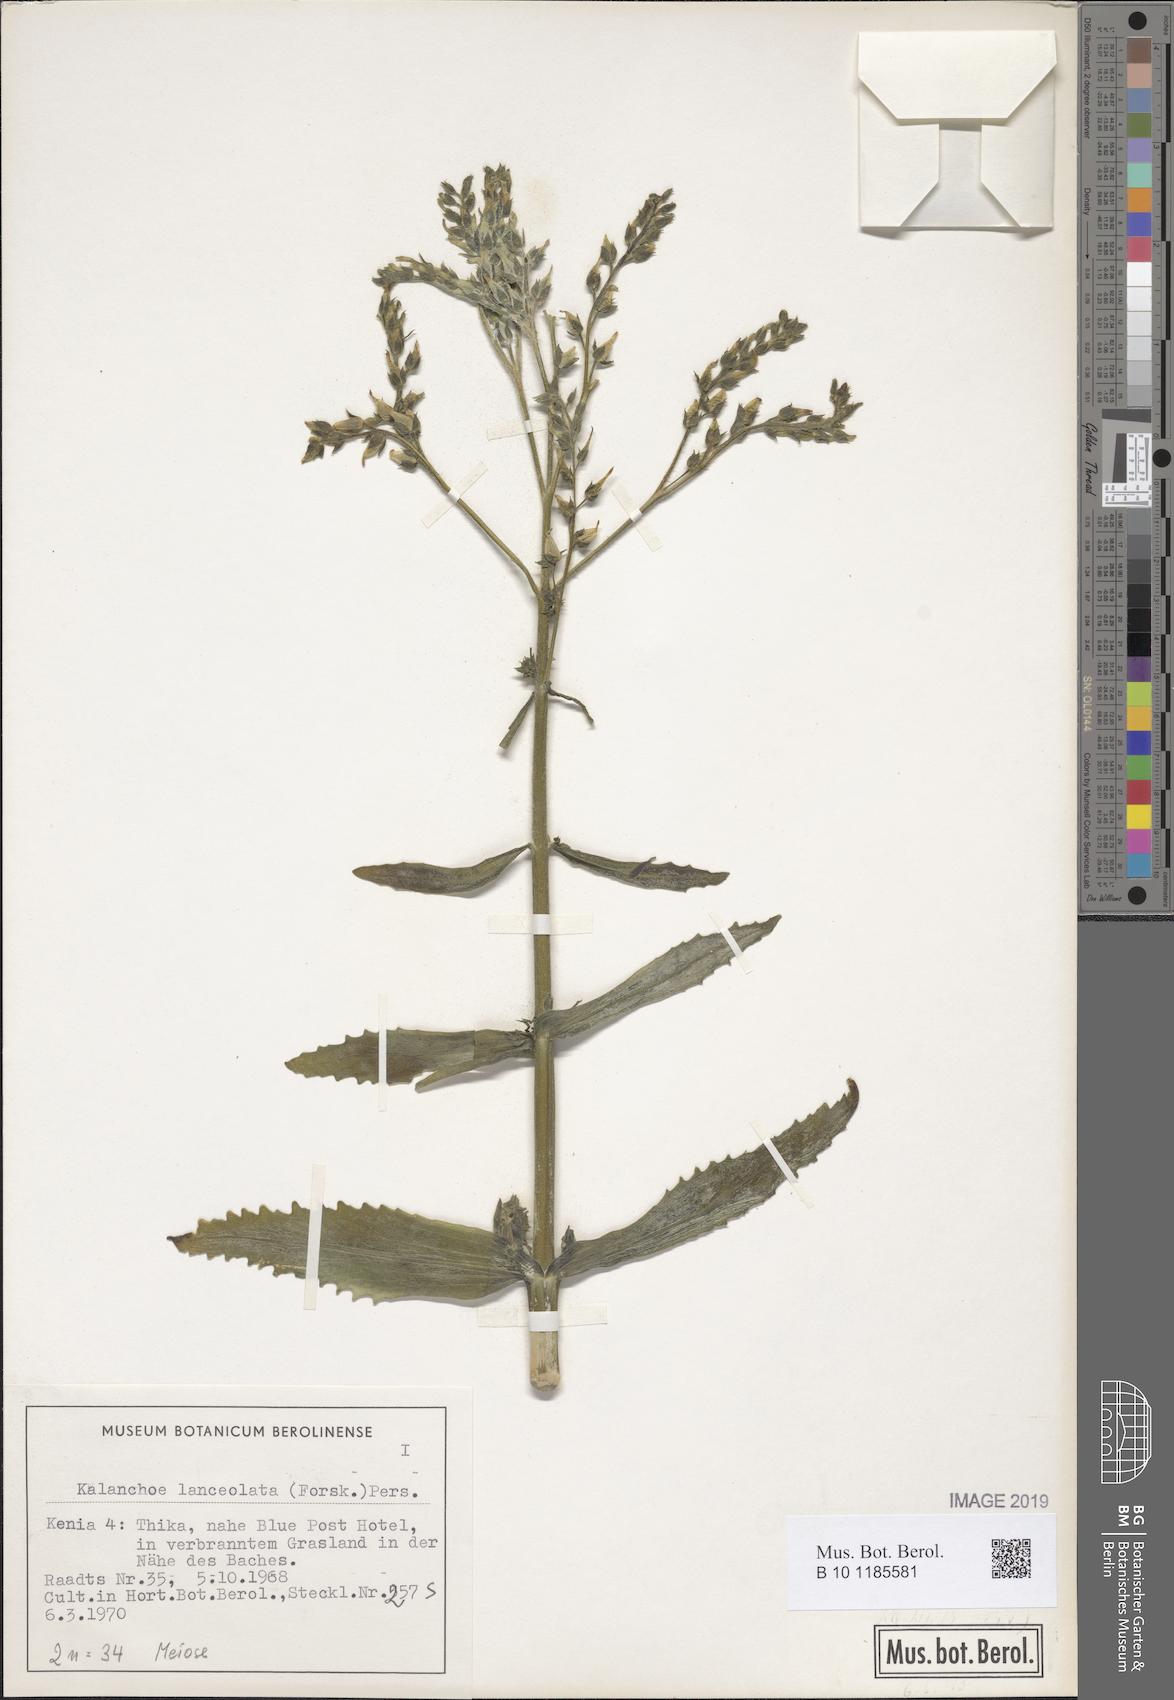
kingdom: Plantae
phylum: Tracheophyta
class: Magnoliopsida
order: Saxifragales
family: Crassulaceae
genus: Kalanchoe
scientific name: Kalanchoe lanceolata
